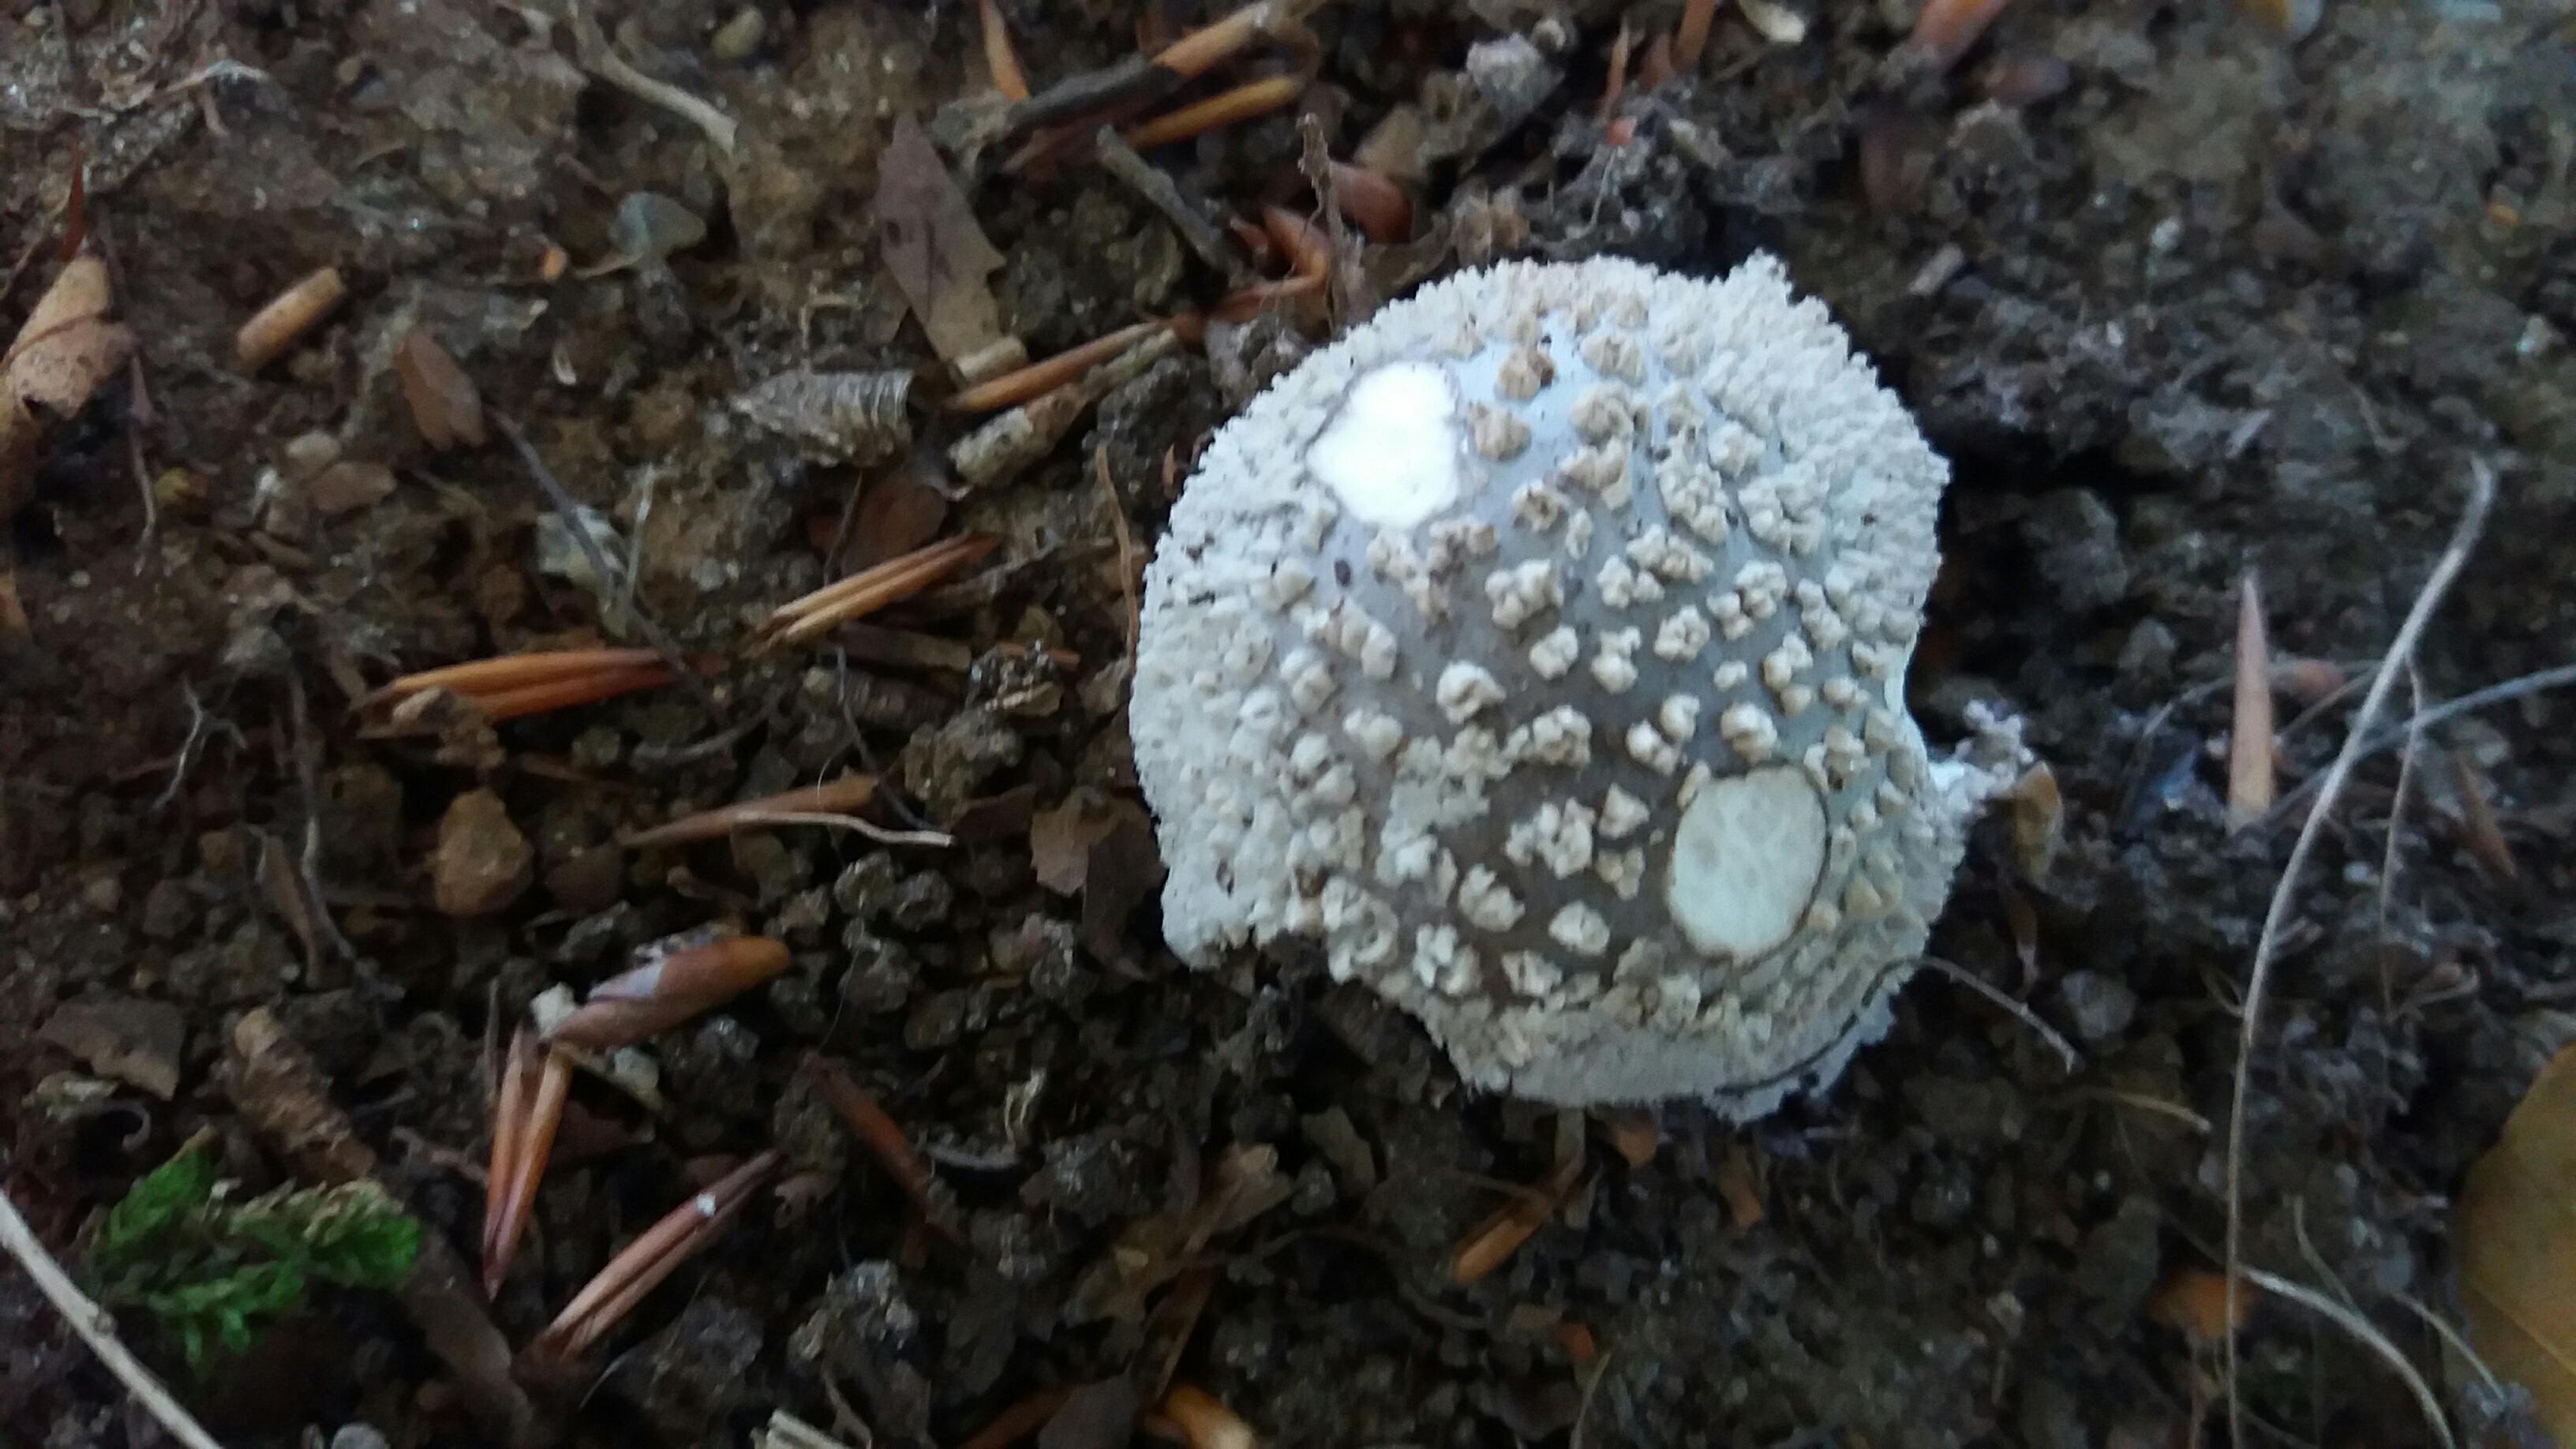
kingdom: Fungi
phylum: Basidiomycota
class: Agaricomycetes
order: Agaricales
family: Amanitaceae
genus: Amanita
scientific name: Amanita
